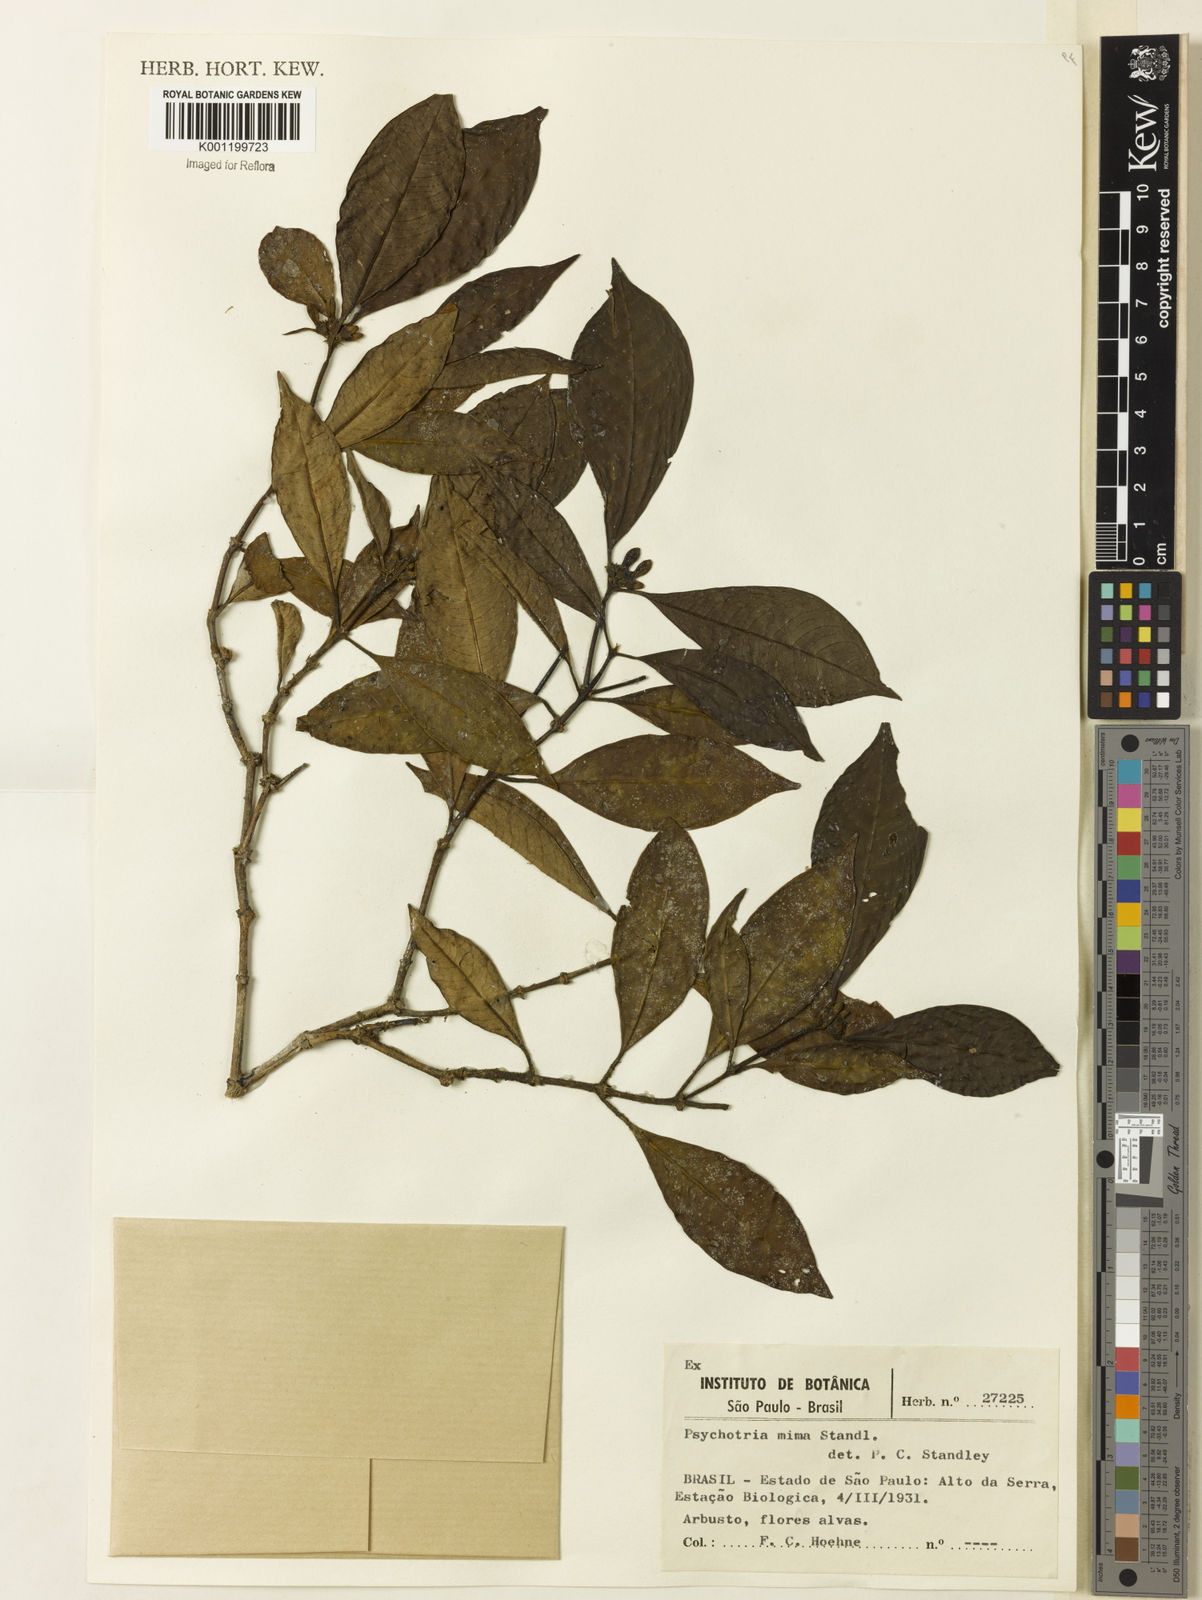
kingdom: Plantae
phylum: Tracheophyta
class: Magnoliopsida
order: Gentianales
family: Rubiaceae
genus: Psychotria
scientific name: Psychotria mima
